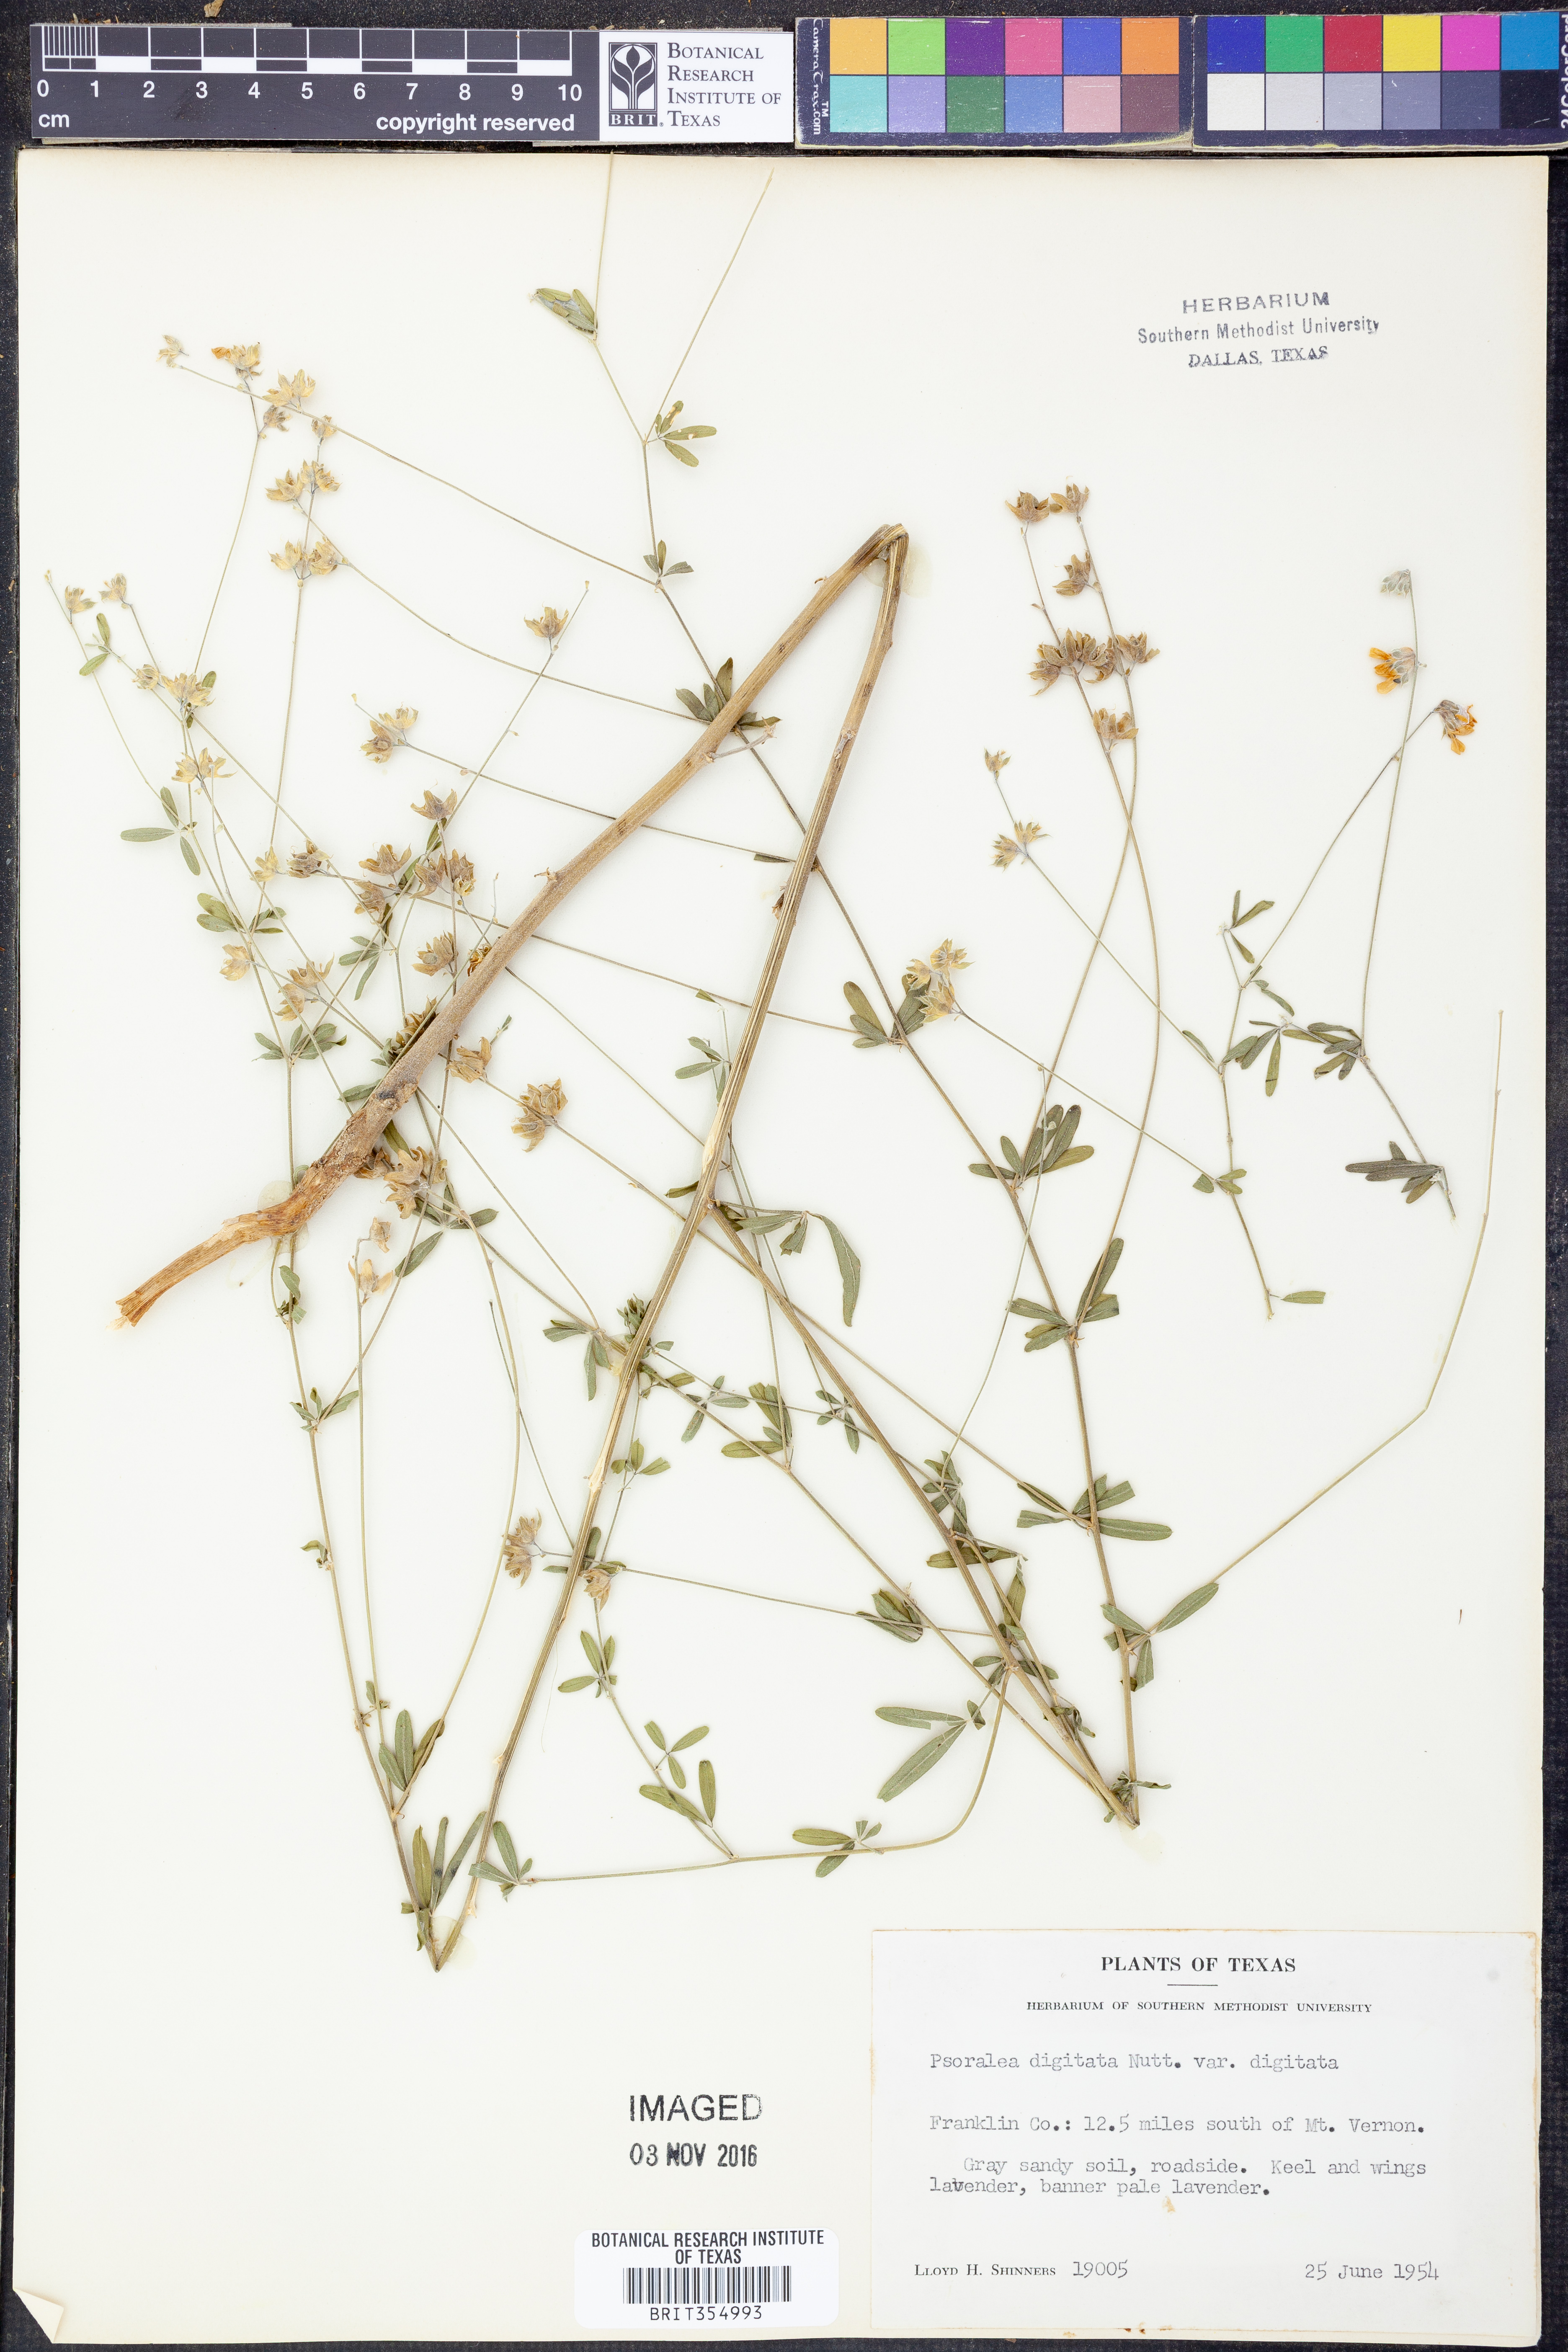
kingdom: Plantae
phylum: Tracheophyta
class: Magnoliopsida
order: Fabales
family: Fabaceae
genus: Pediomelum
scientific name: Pediomelum digitatum
